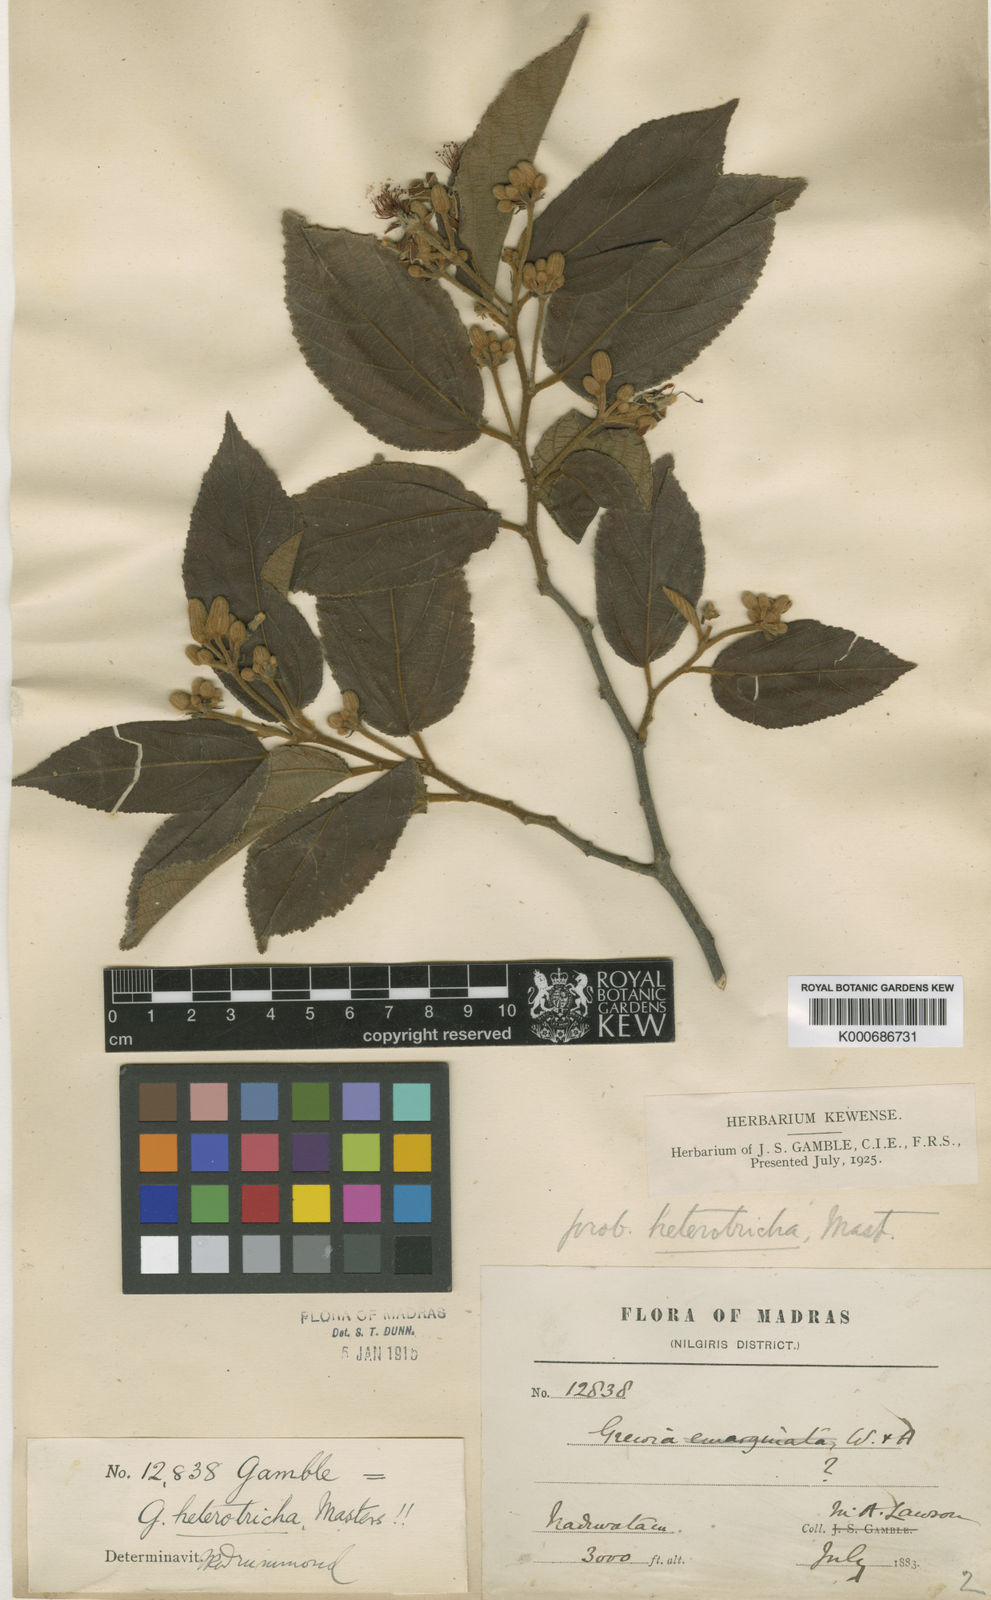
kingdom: Plantae
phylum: Tracheophyta
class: Magnoliopsida
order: Malvales
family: Malvaceae
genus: Grewia
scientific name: Grewia heterotricha
